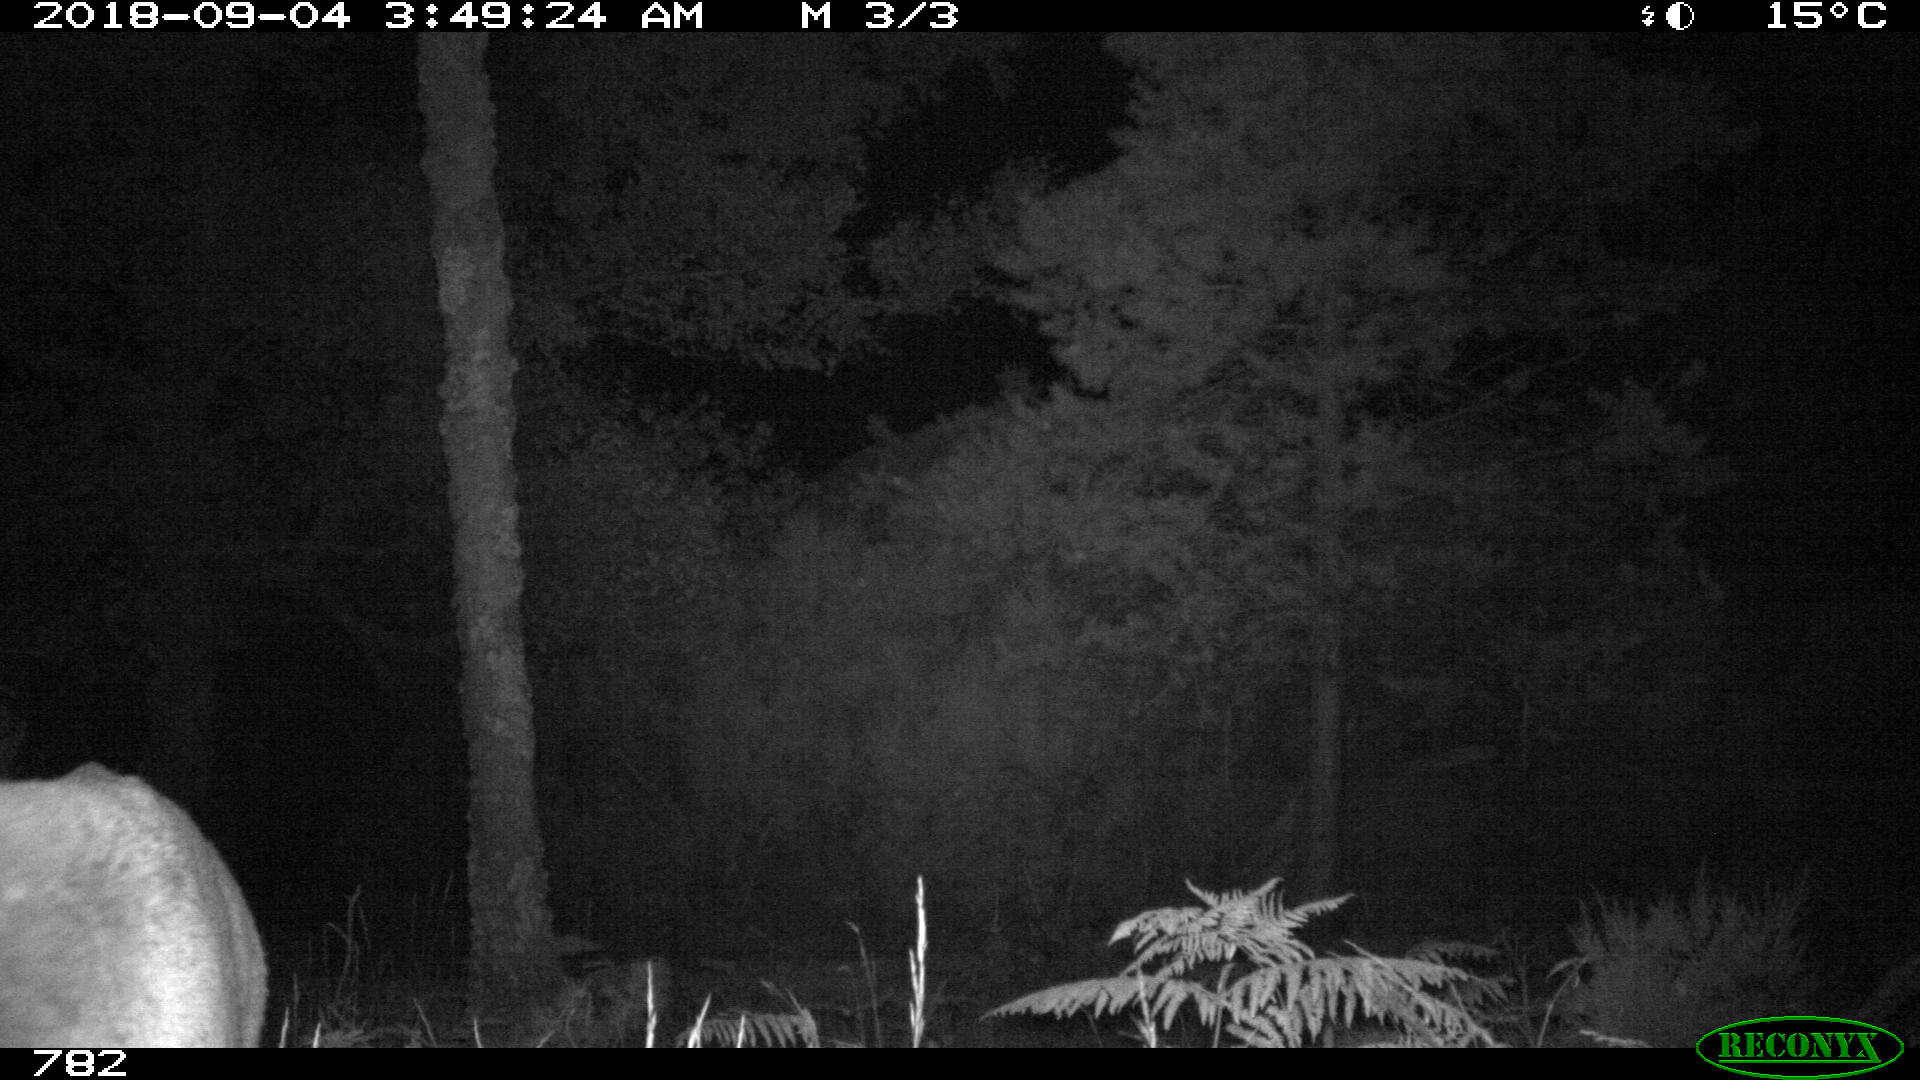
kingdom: Animalia
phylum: Chordata
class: Mammalia
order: Artiodactyla
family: Cervidae
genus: Capreolus
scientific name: Capreolus capreolus
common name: Western roe deer
